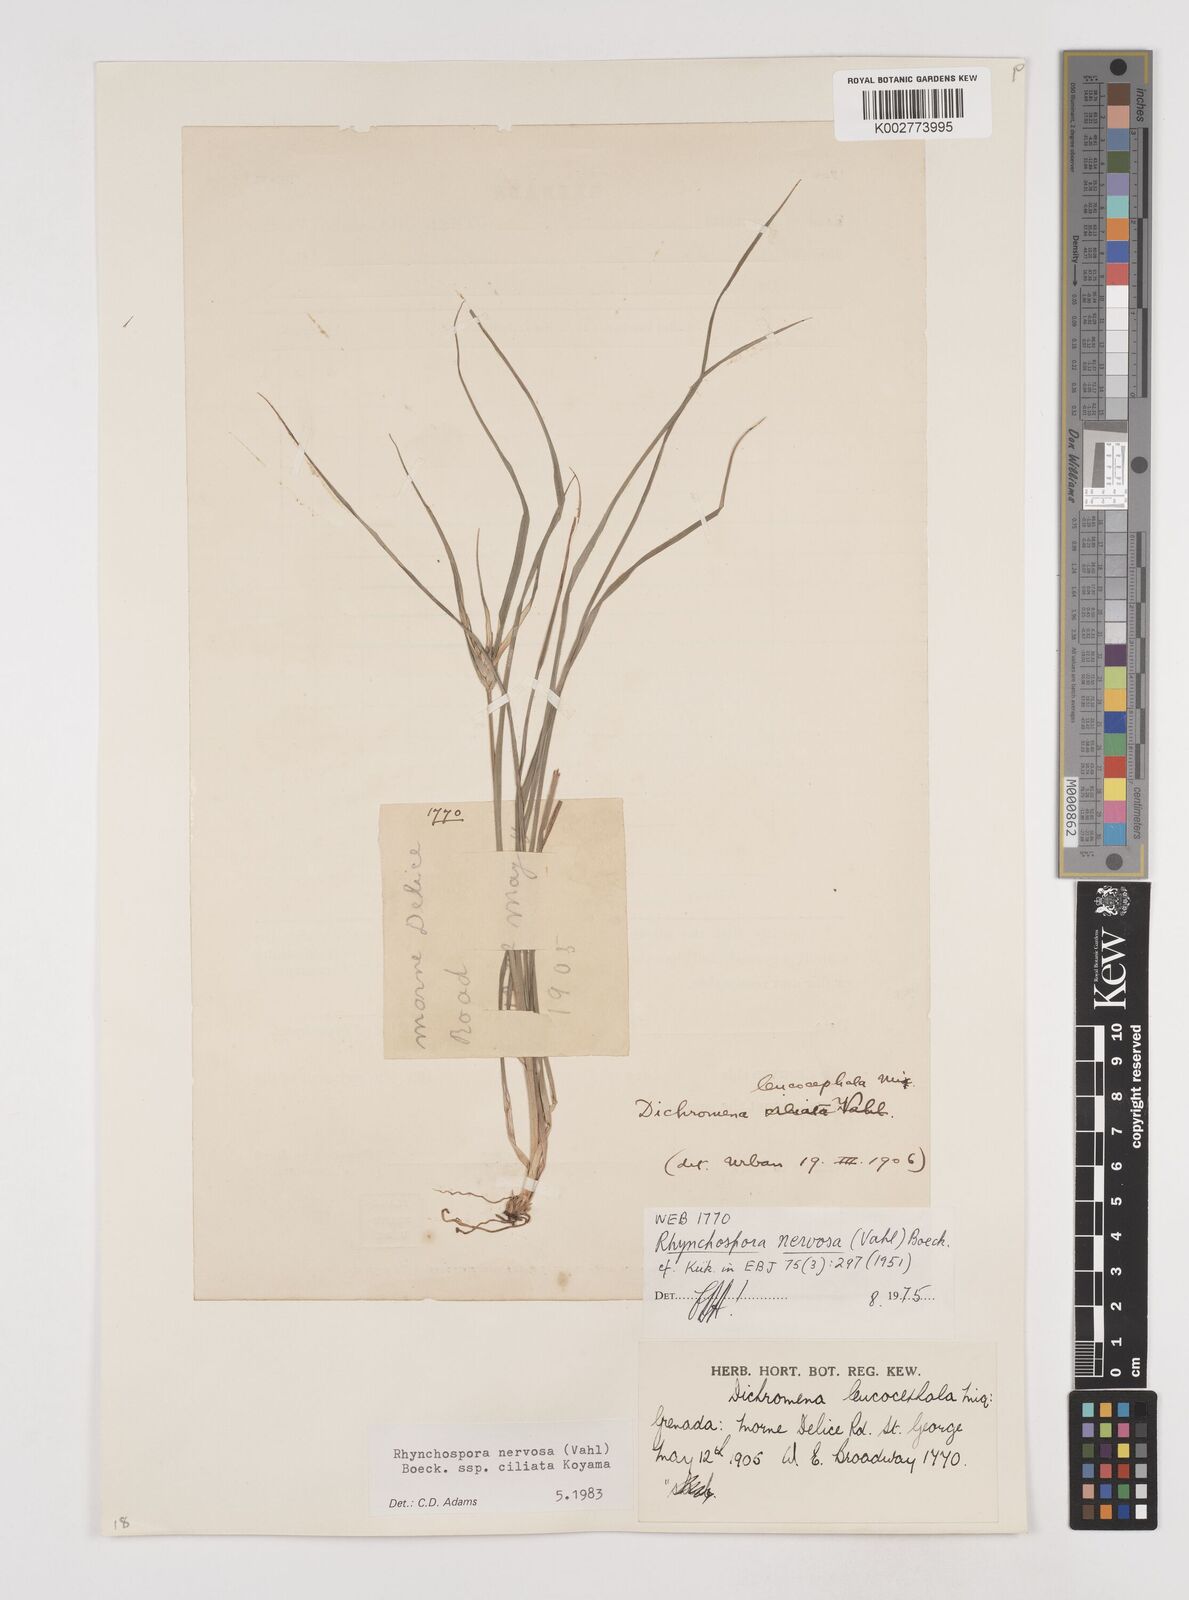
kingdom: Plantae
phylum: Tracheophyta
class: Liliopsida
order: Poales
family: Cyperaceae
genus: Rhynchospora
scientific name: Rhynchospora pura
